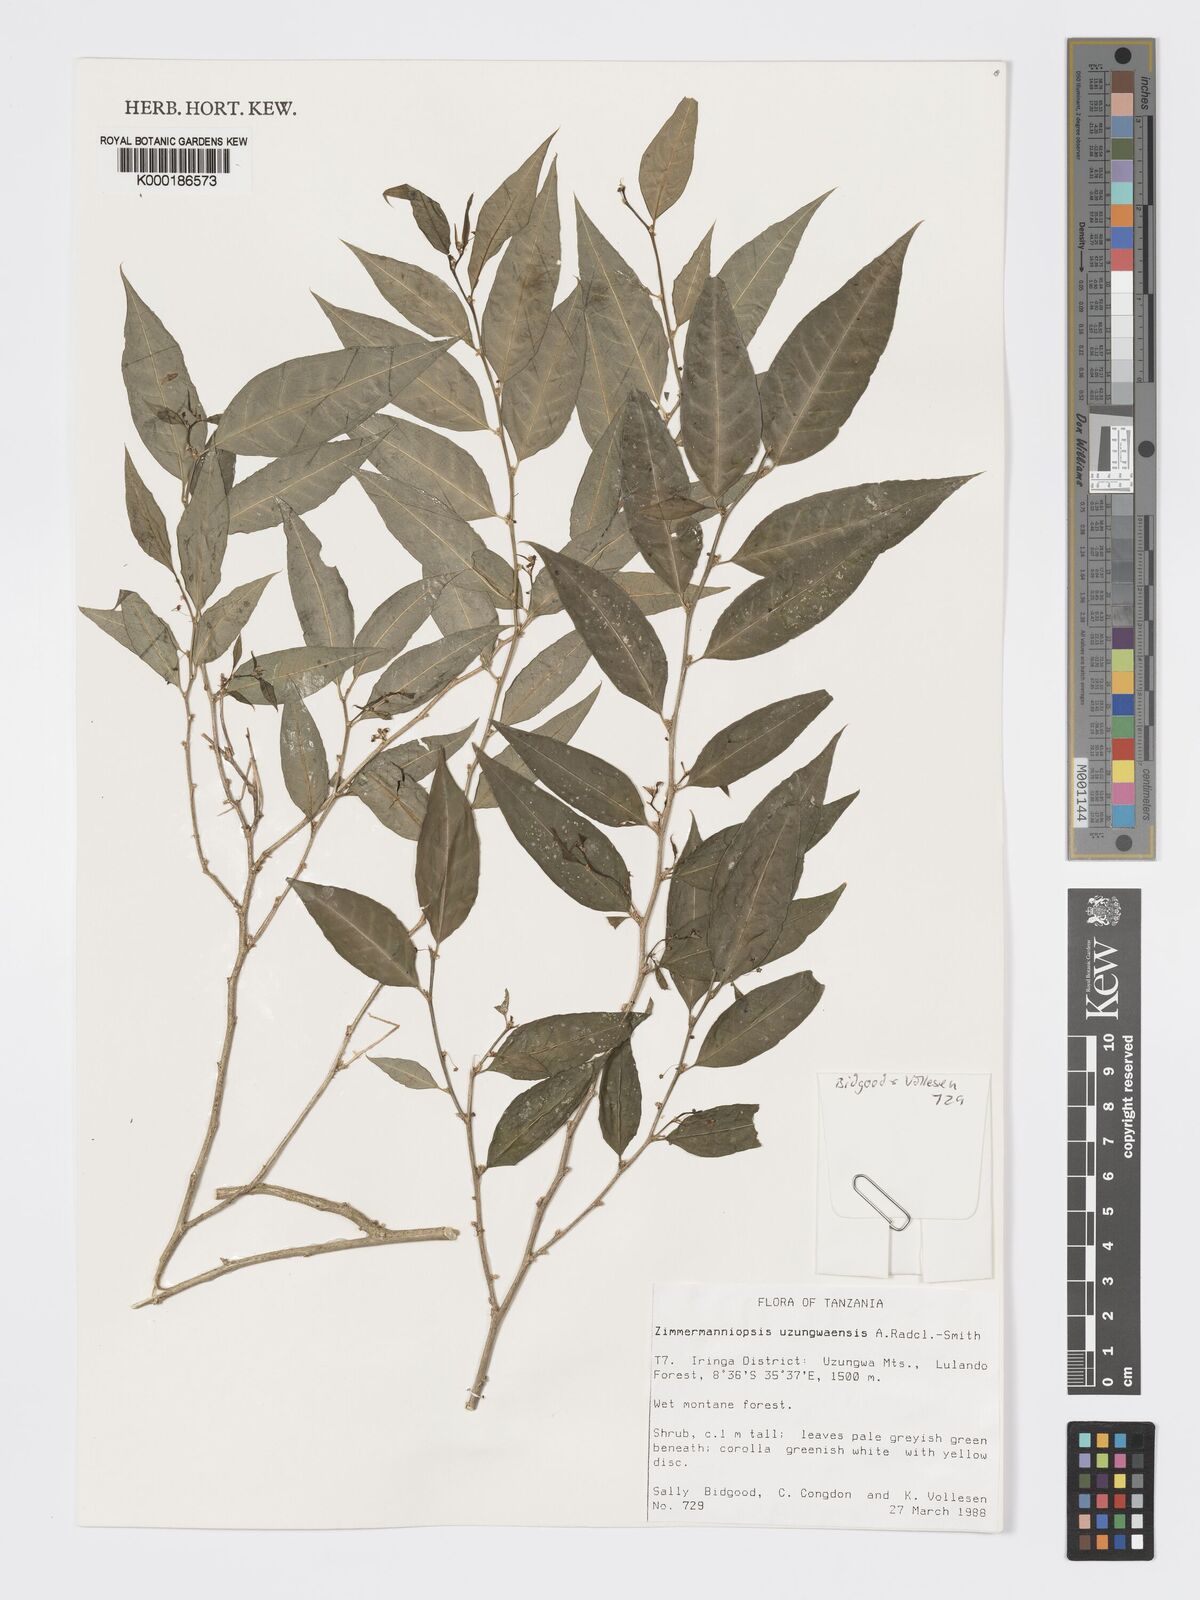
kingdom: Plantae
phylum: Tracheophyta
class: Magnoliopsida
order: Malpighiales
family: Phyllanthaceae
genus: Meineckia
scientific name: Meineckia uzungwaensis
